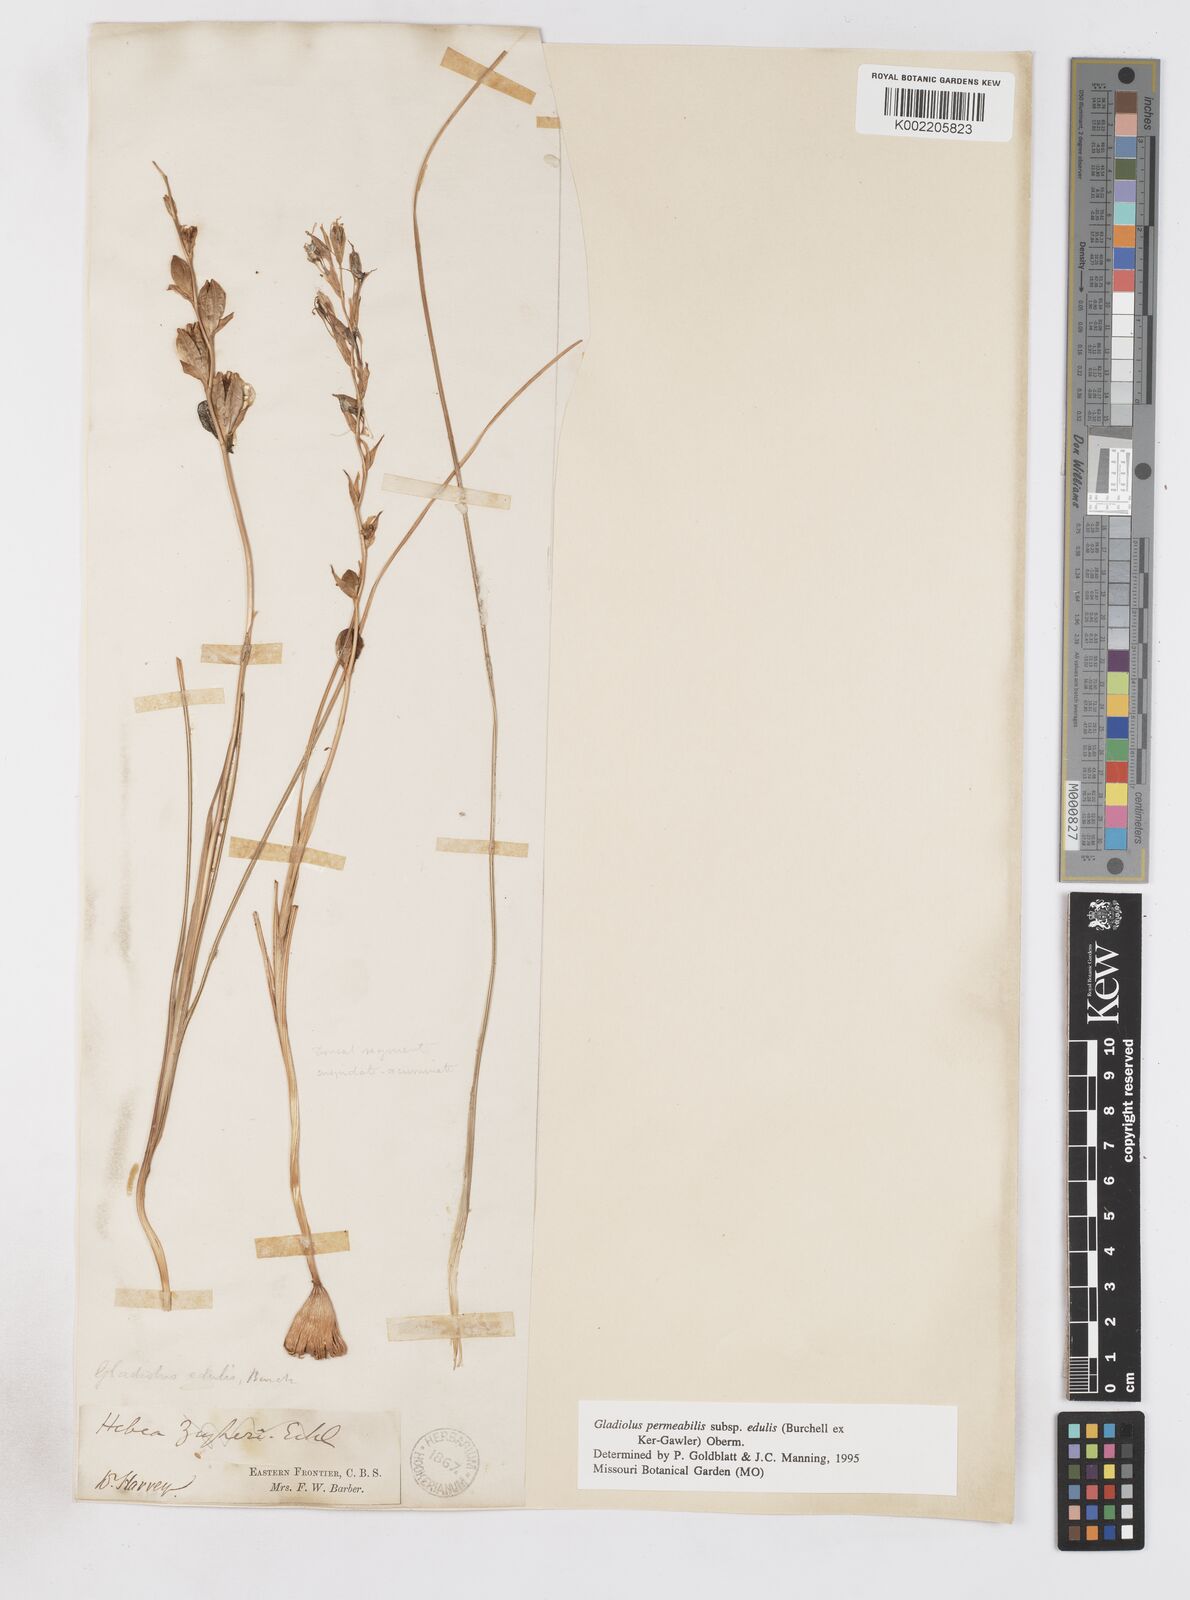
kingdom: Plantae
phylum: Tracheophyta
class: Liliopsida
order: Asparagales
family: Iridaceae
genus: Gladiolus
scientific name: Gladiolus permeabilis
